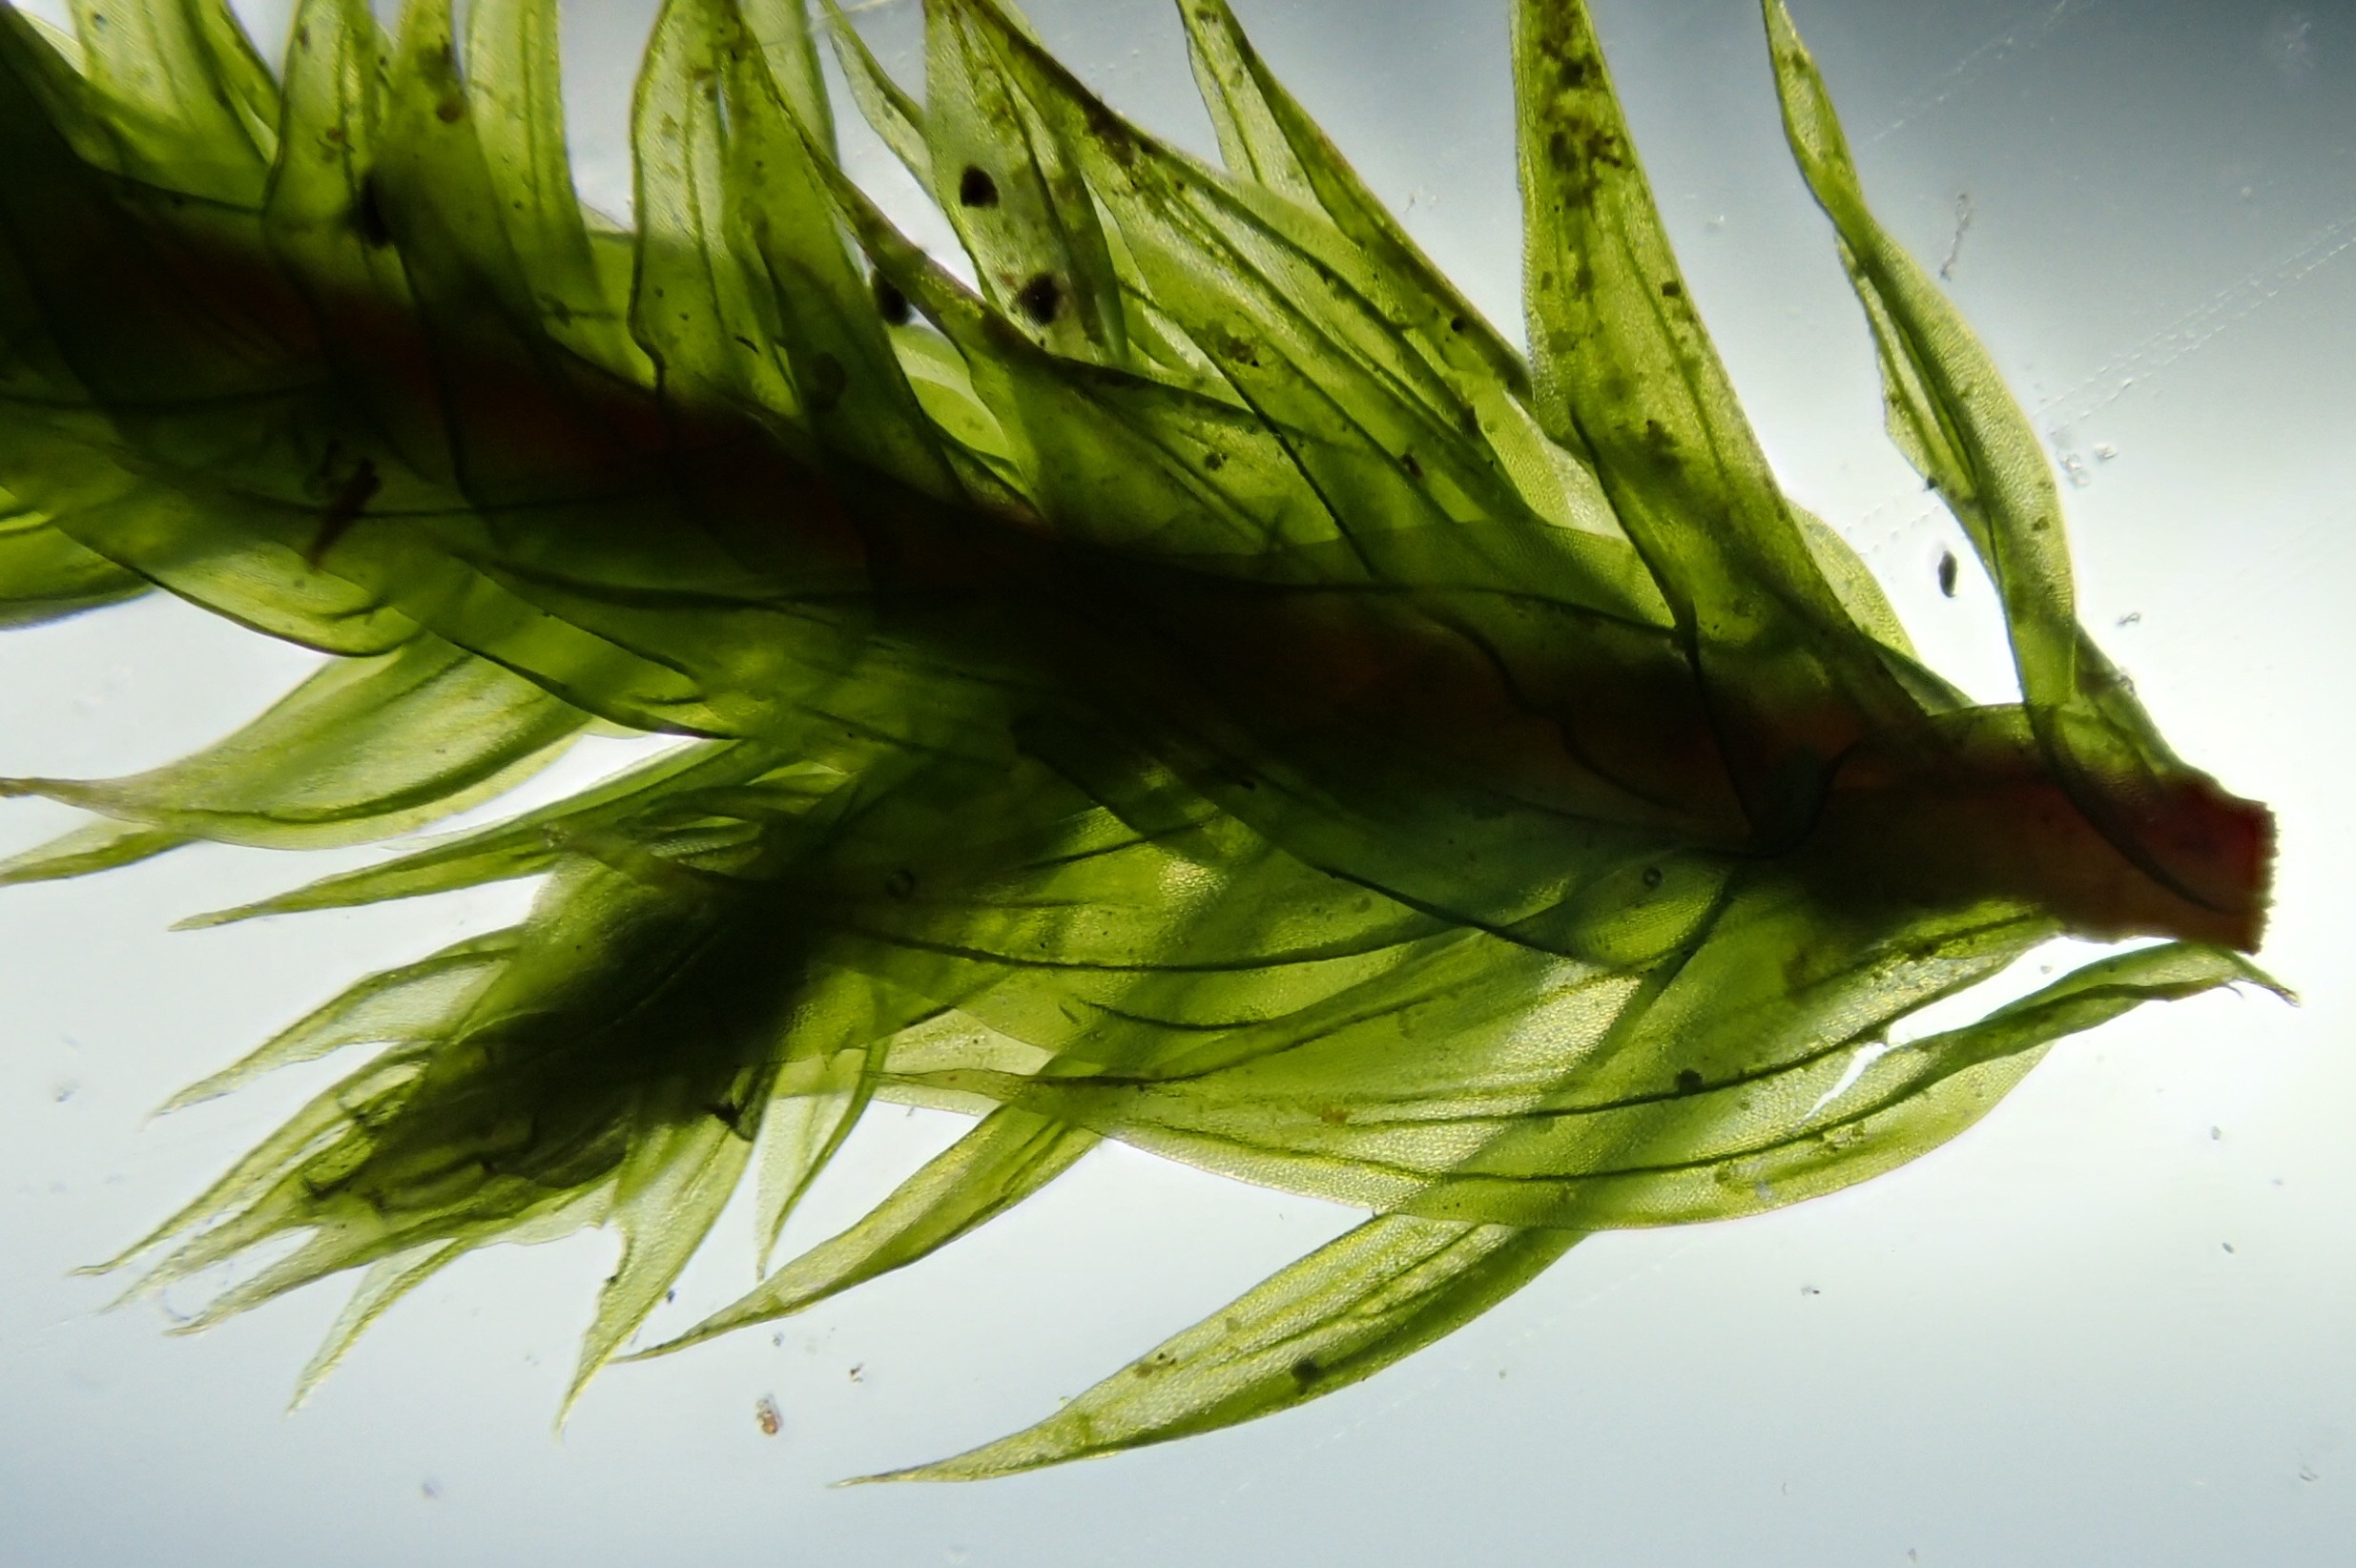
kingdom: Plantae
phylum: Bryophyta
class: Bryopsida
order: Hypnales
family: Leucodontaceae
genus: Leucodon
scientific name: Leucodon sciuroides
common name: Egernhale-buemos
